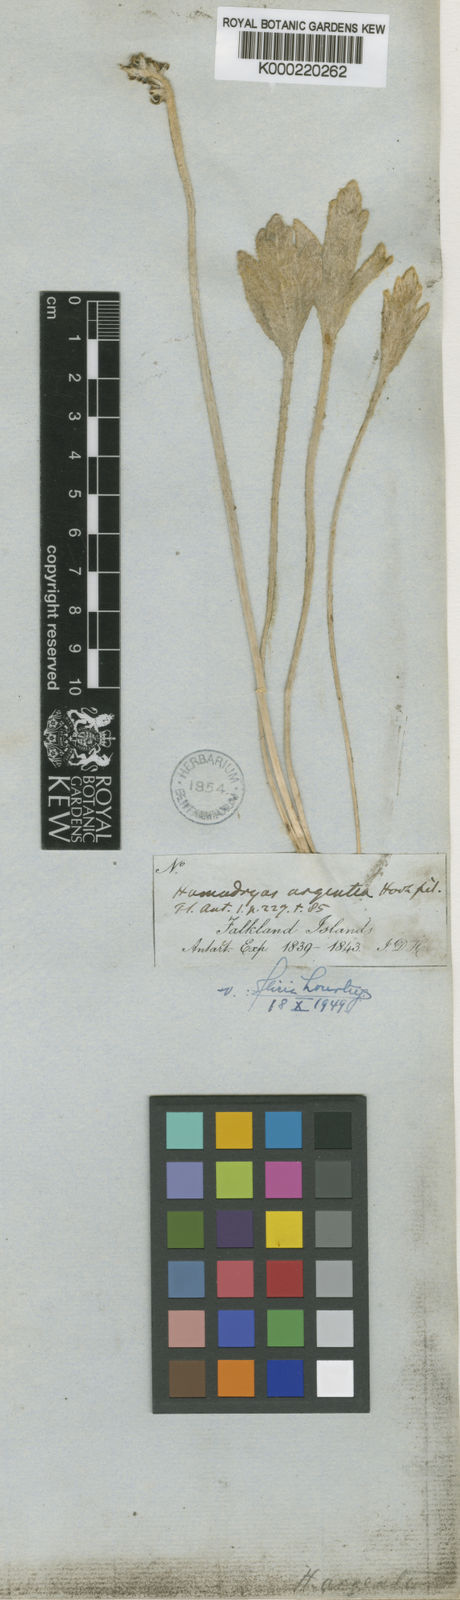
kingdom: Plantae
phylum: Tracheophyta
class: Magnoliopsida
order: Ranunculales
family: Ranunculaceae
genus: Hamadryas
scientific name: Hamadryas argentea
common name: Silvery buttercup
